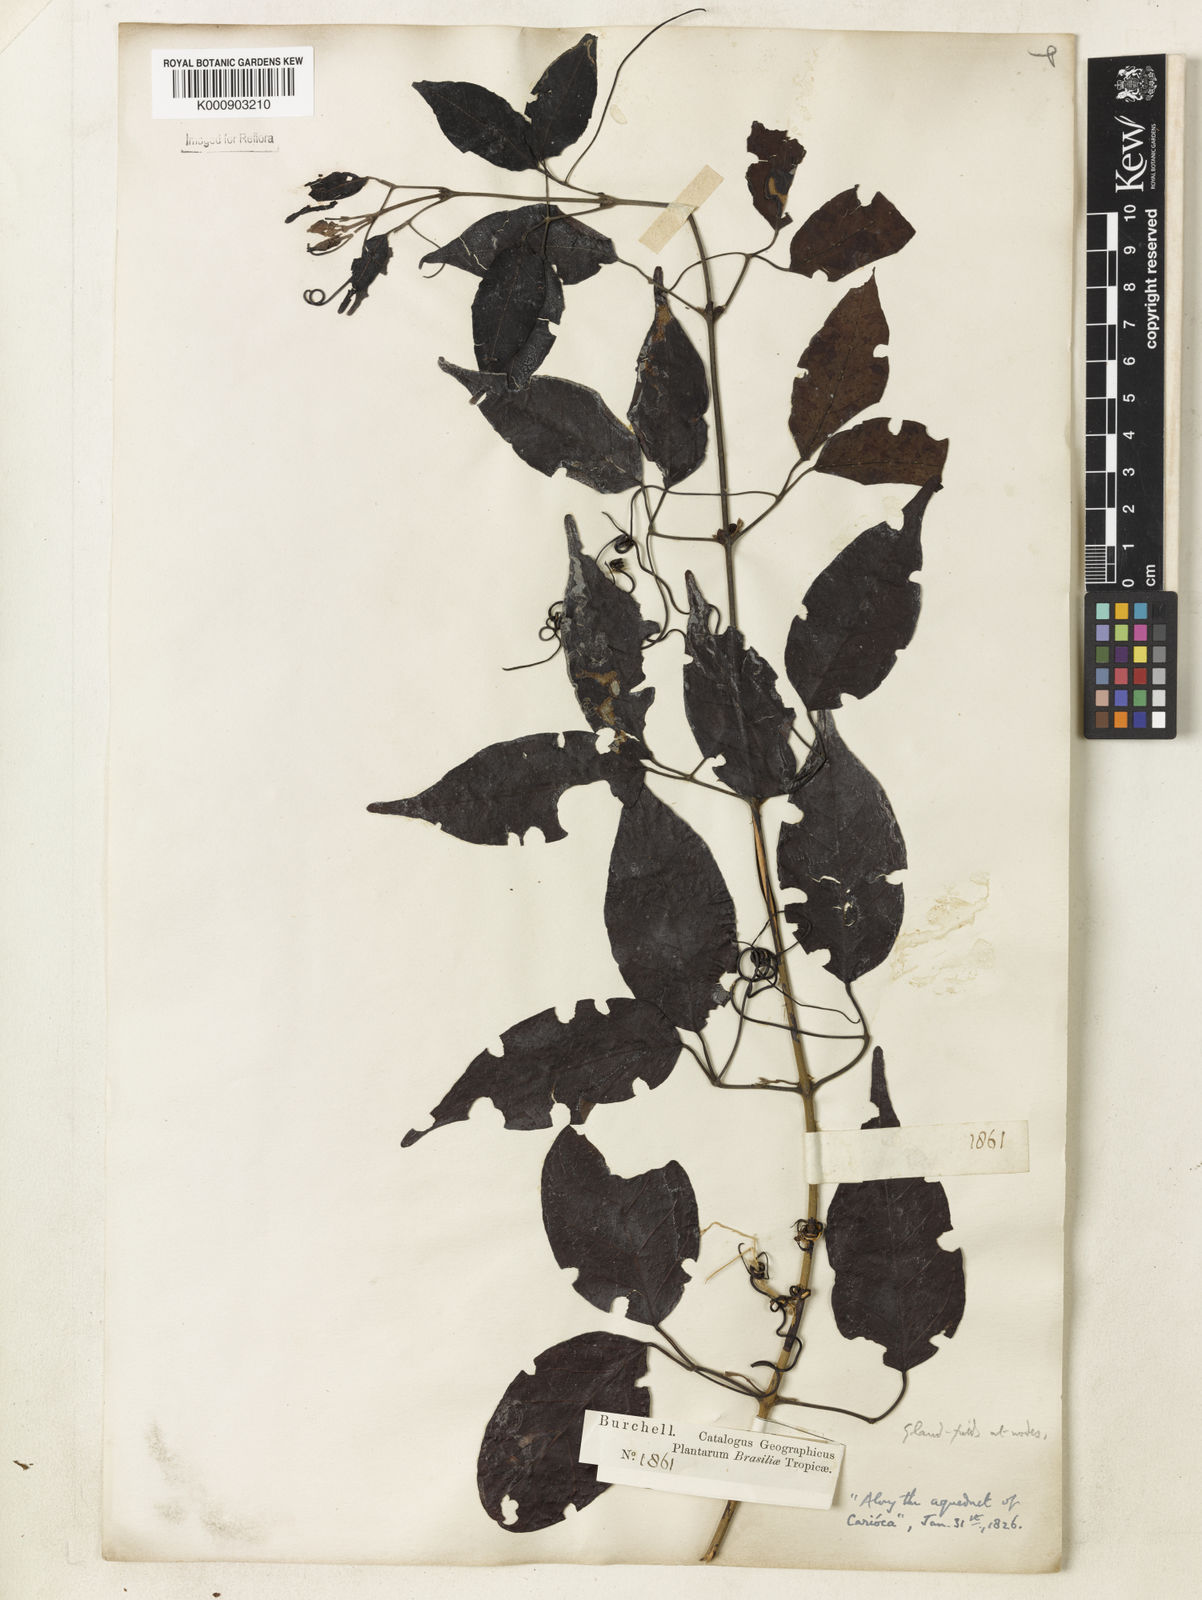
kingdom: Plantae
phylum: Tracheophyta
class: Magnoliopsida
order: Lamiales
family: Bignoniaceae
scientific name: Bignoniaceae
